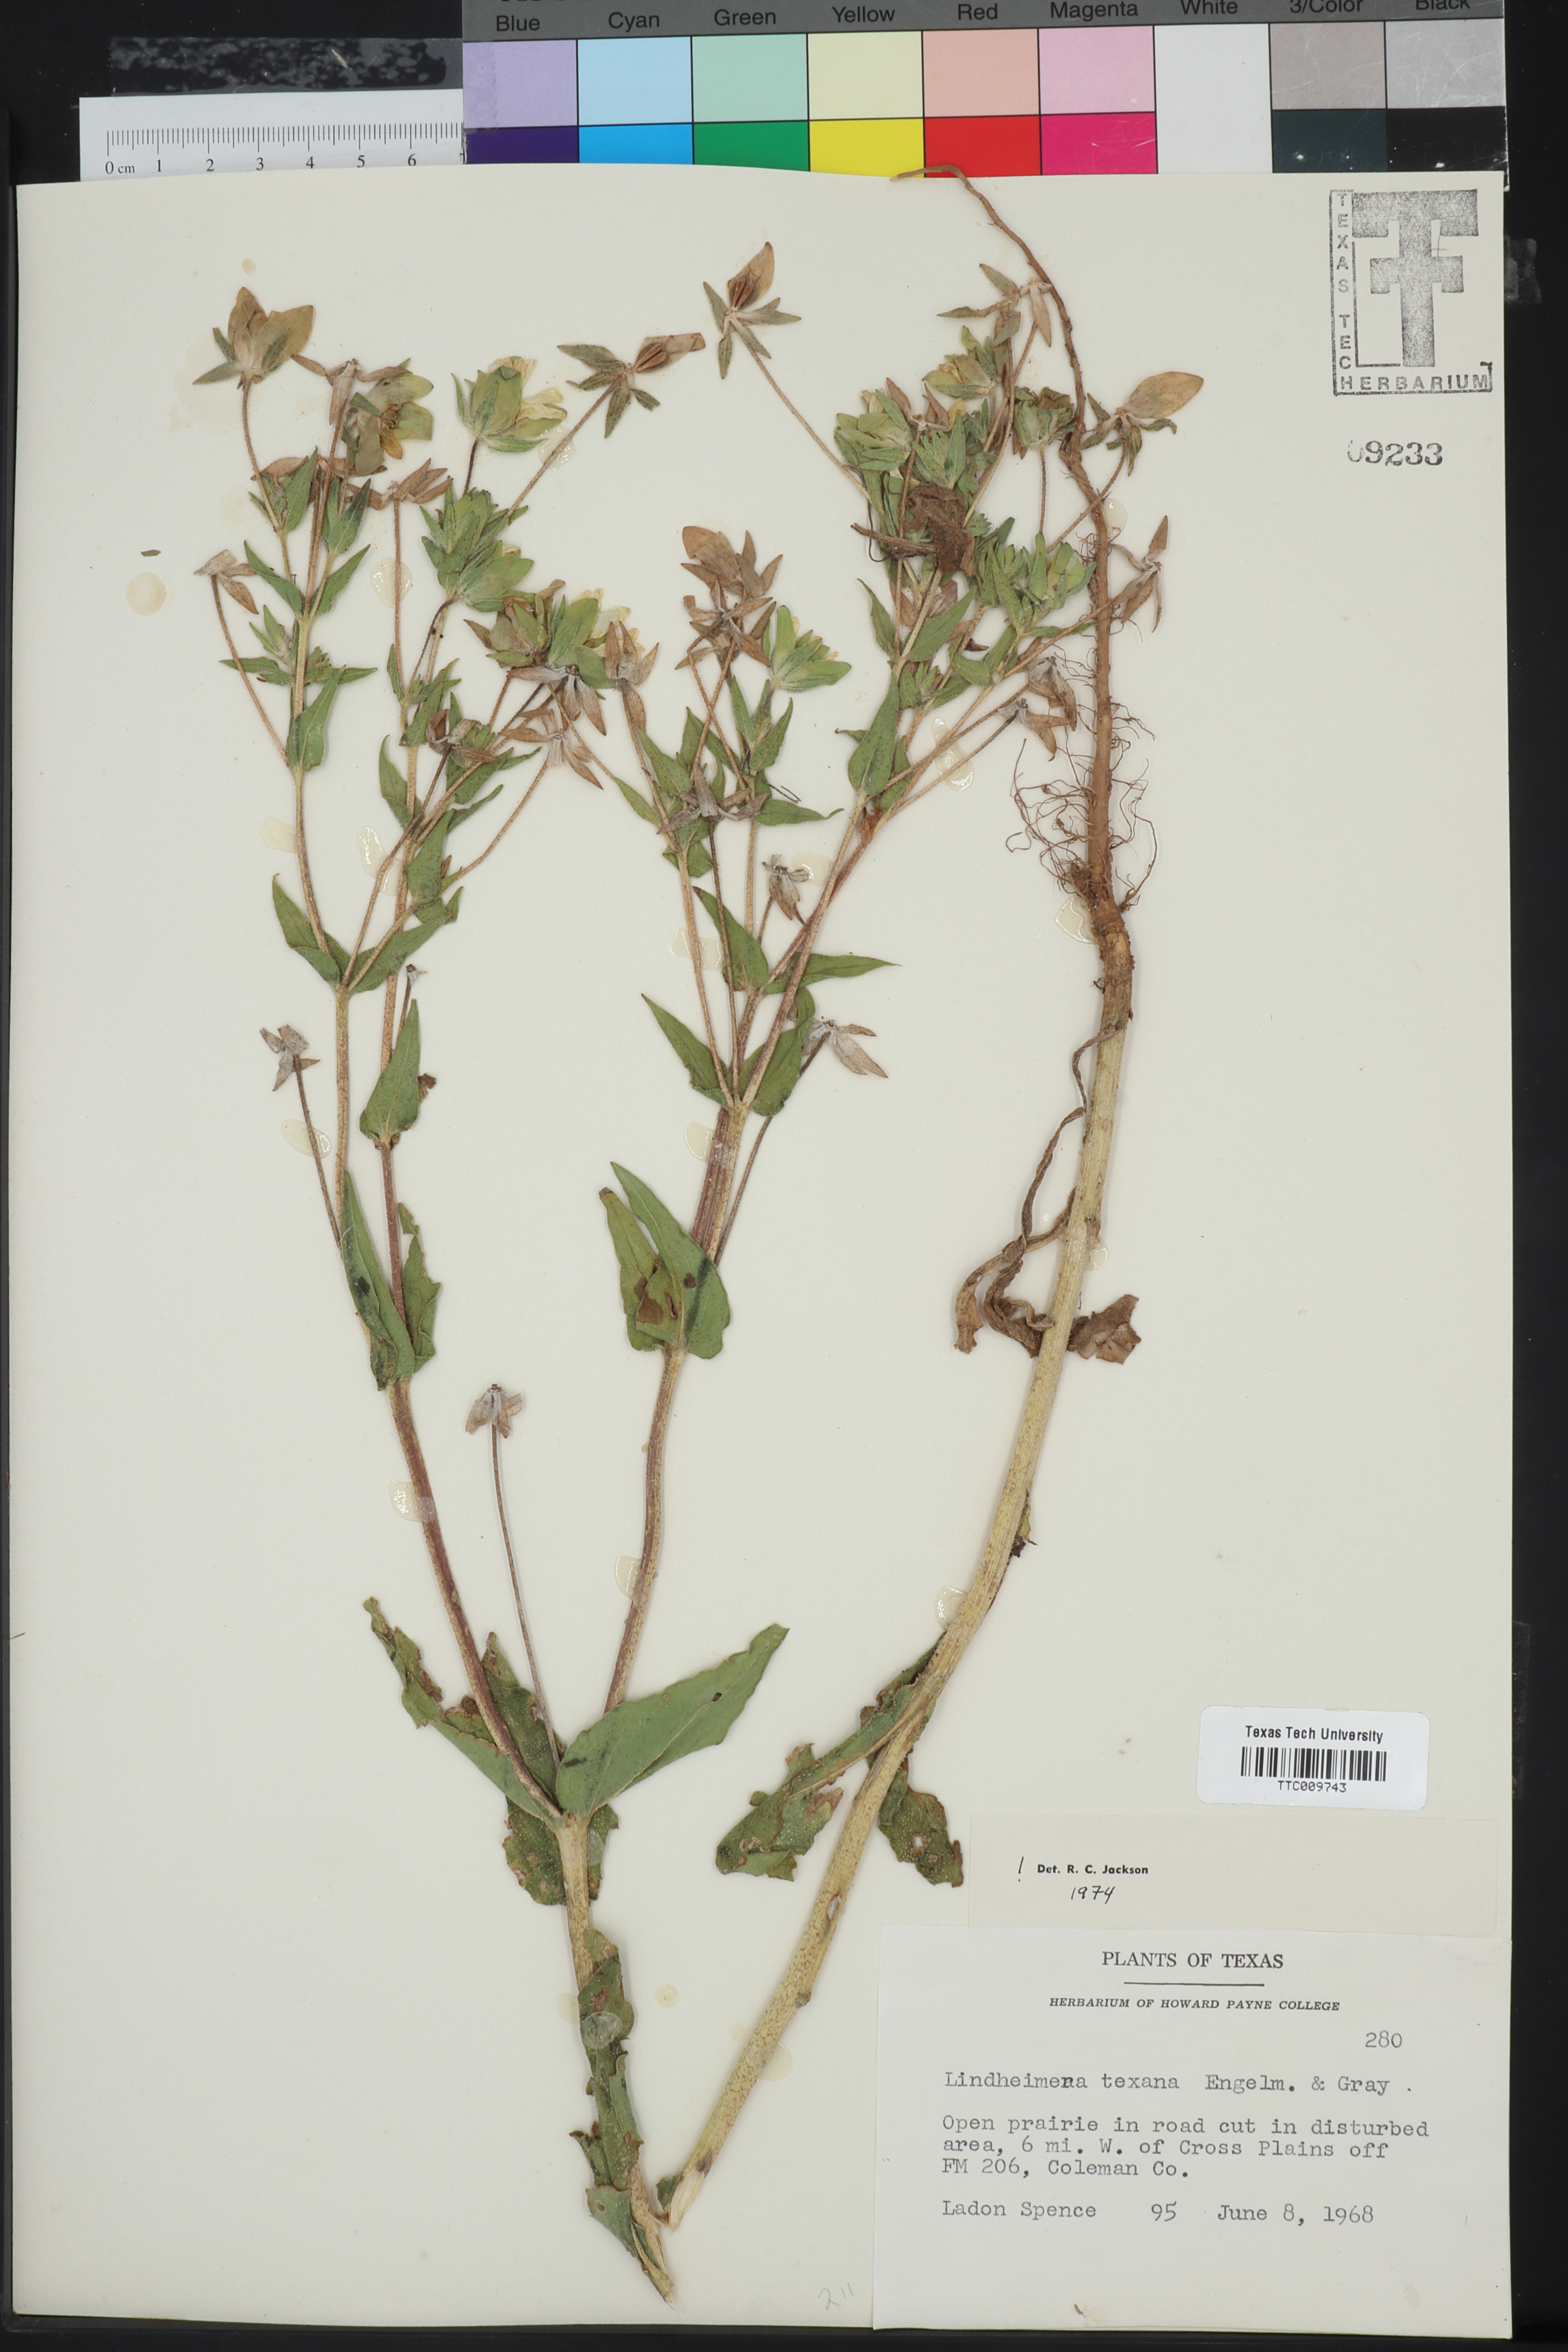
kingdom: Plantae
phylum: Tracheophyta
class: Magnoliopsida
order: Asterales
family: Asteraceae
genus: Lindheimera
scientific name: Lindheimera texana
